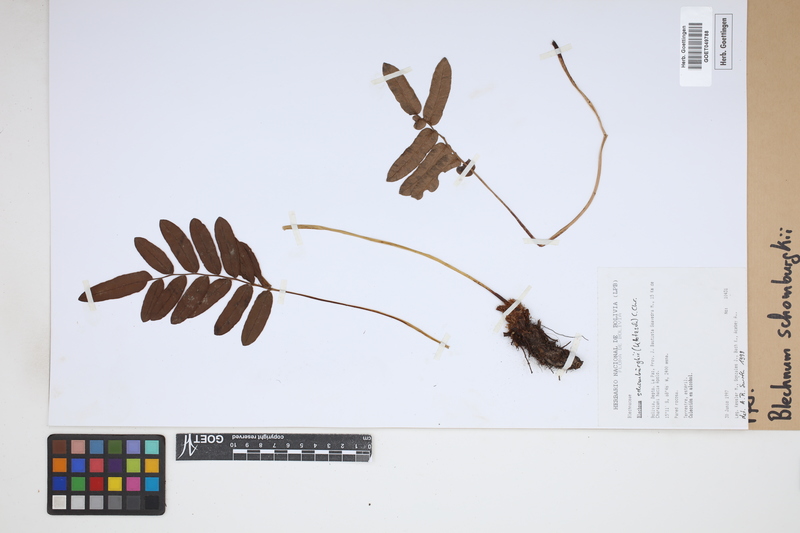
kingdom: Plantae
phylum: Tracheophyta
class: Polypodiopsida
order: Polypodiales
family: Blechnaceae
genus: Lomariocycas
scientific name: Lomariocycas schomburgkii
